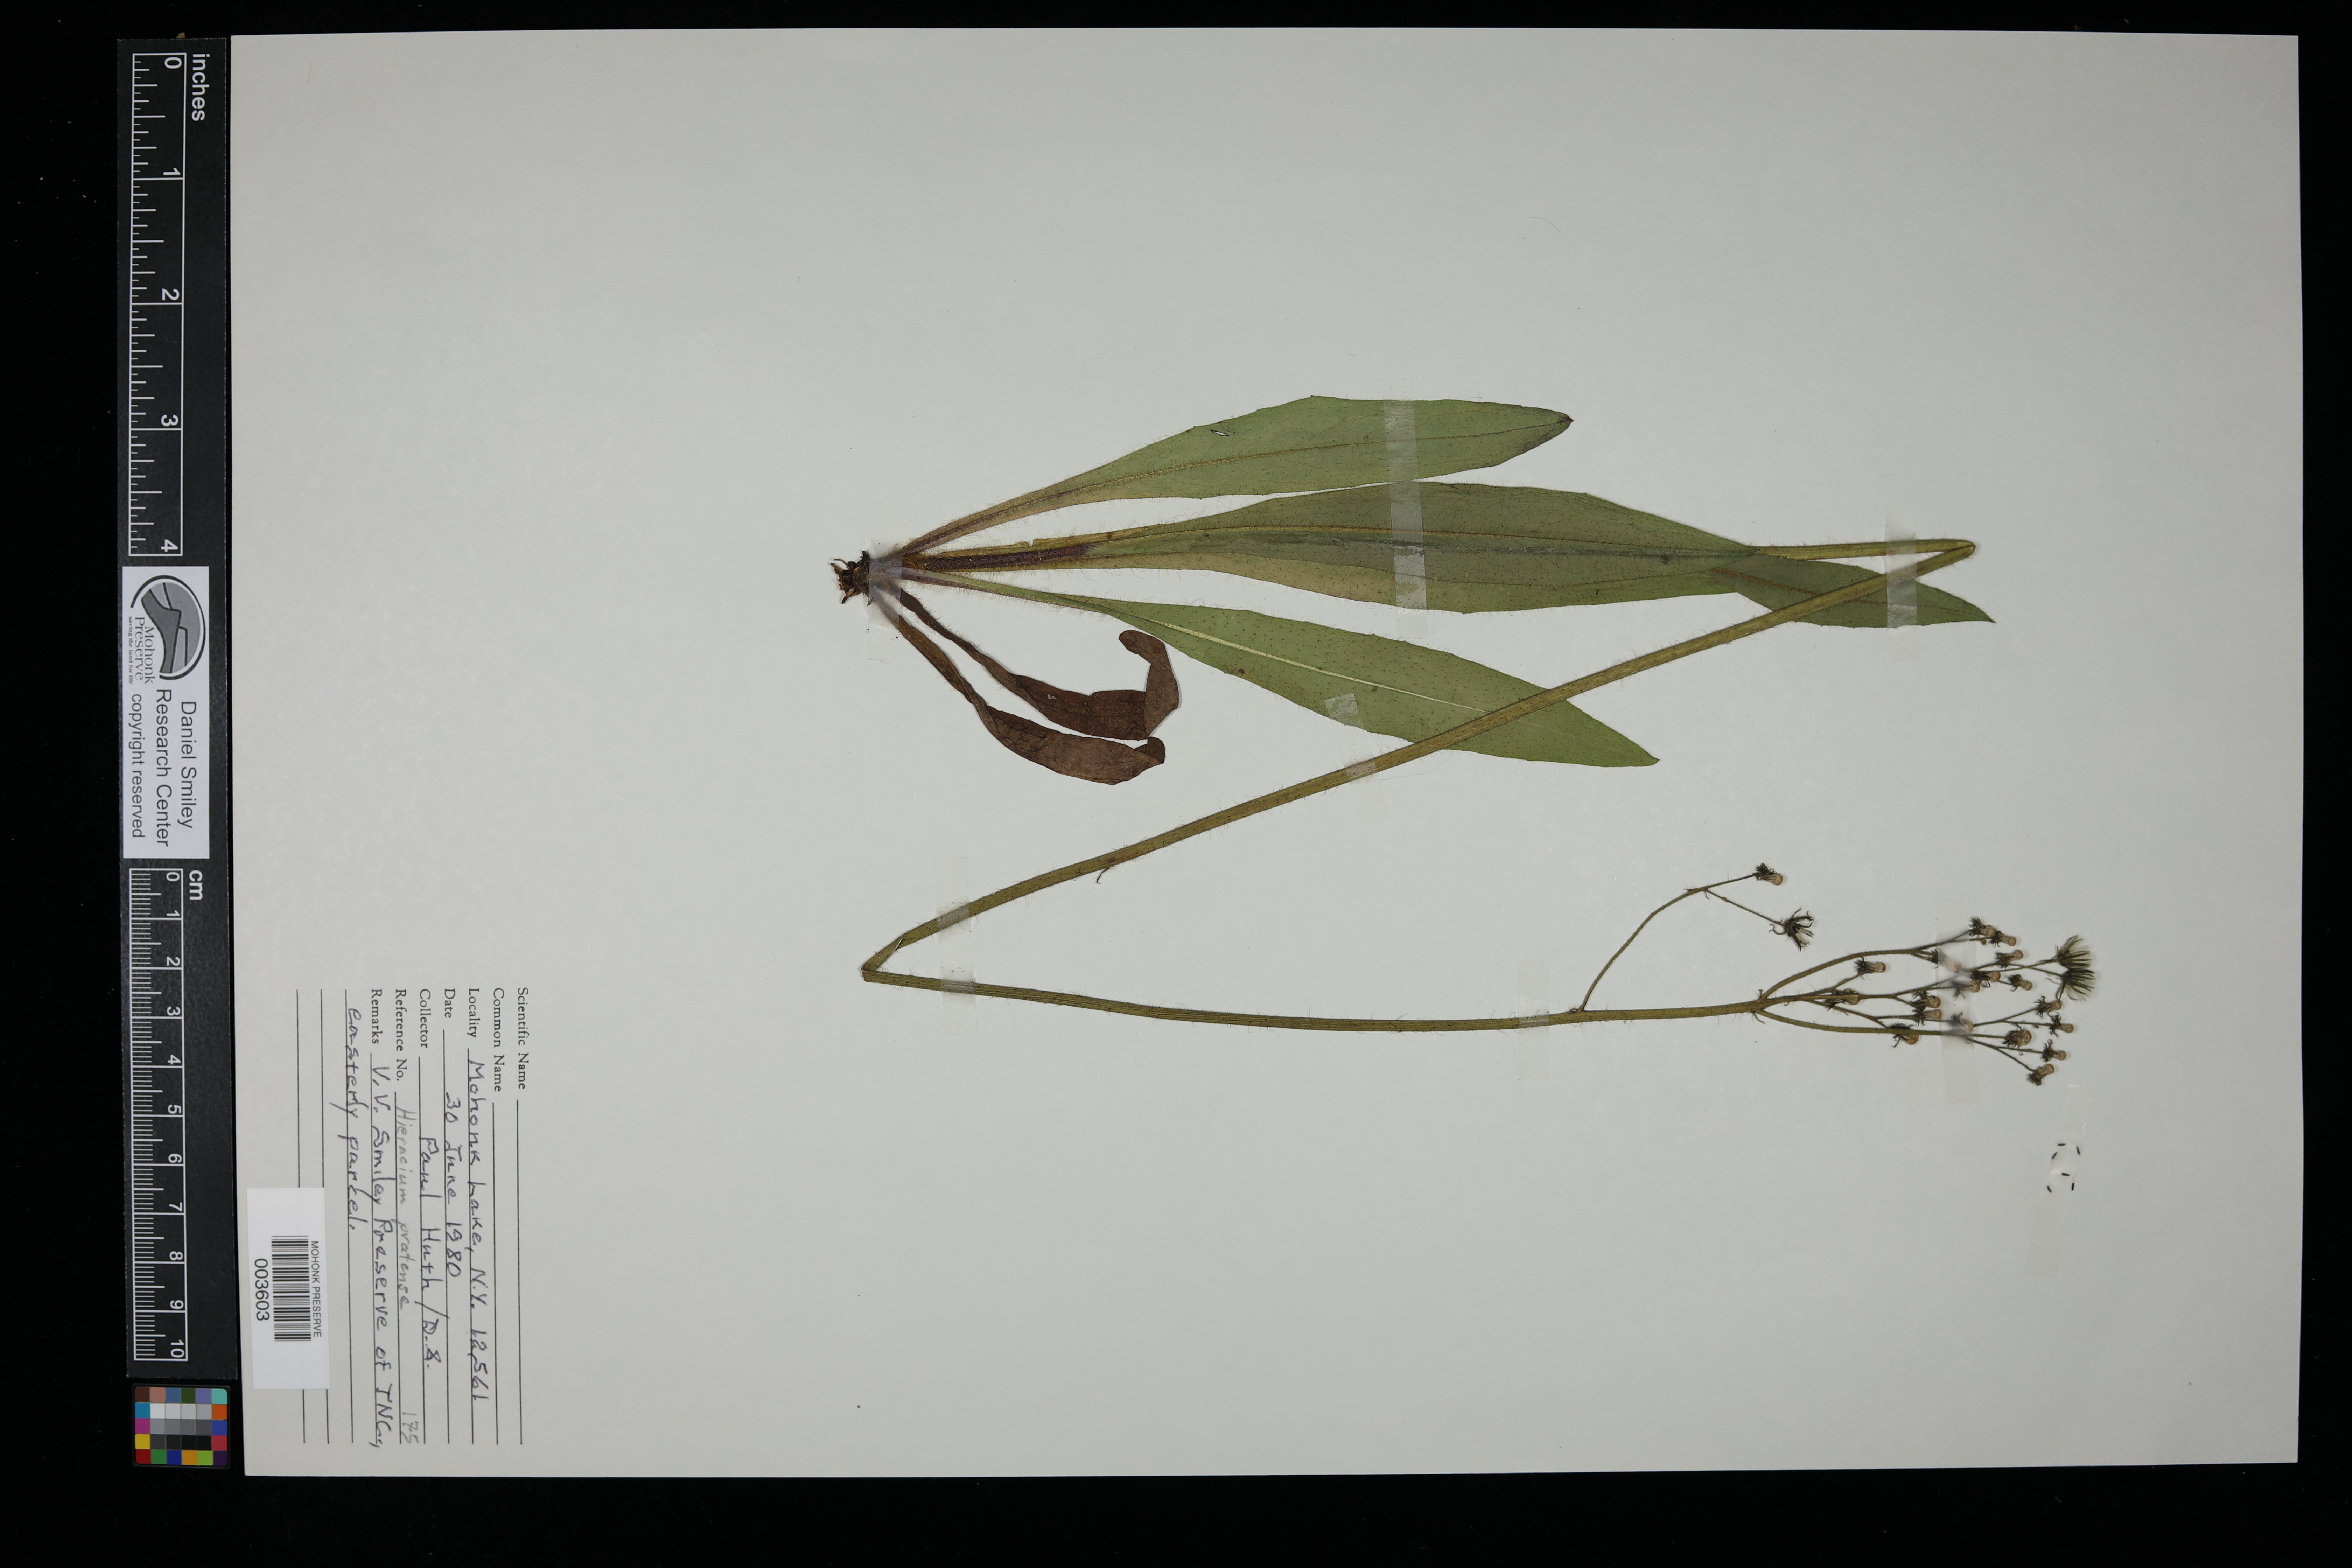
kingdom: Plantae
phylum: Tracheophyta
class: Magnoliopsida
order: Asterales
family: Asteraceae
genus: Pilosella
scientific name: Pilosella caespitosa
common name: Yellow fox-and-cubs
